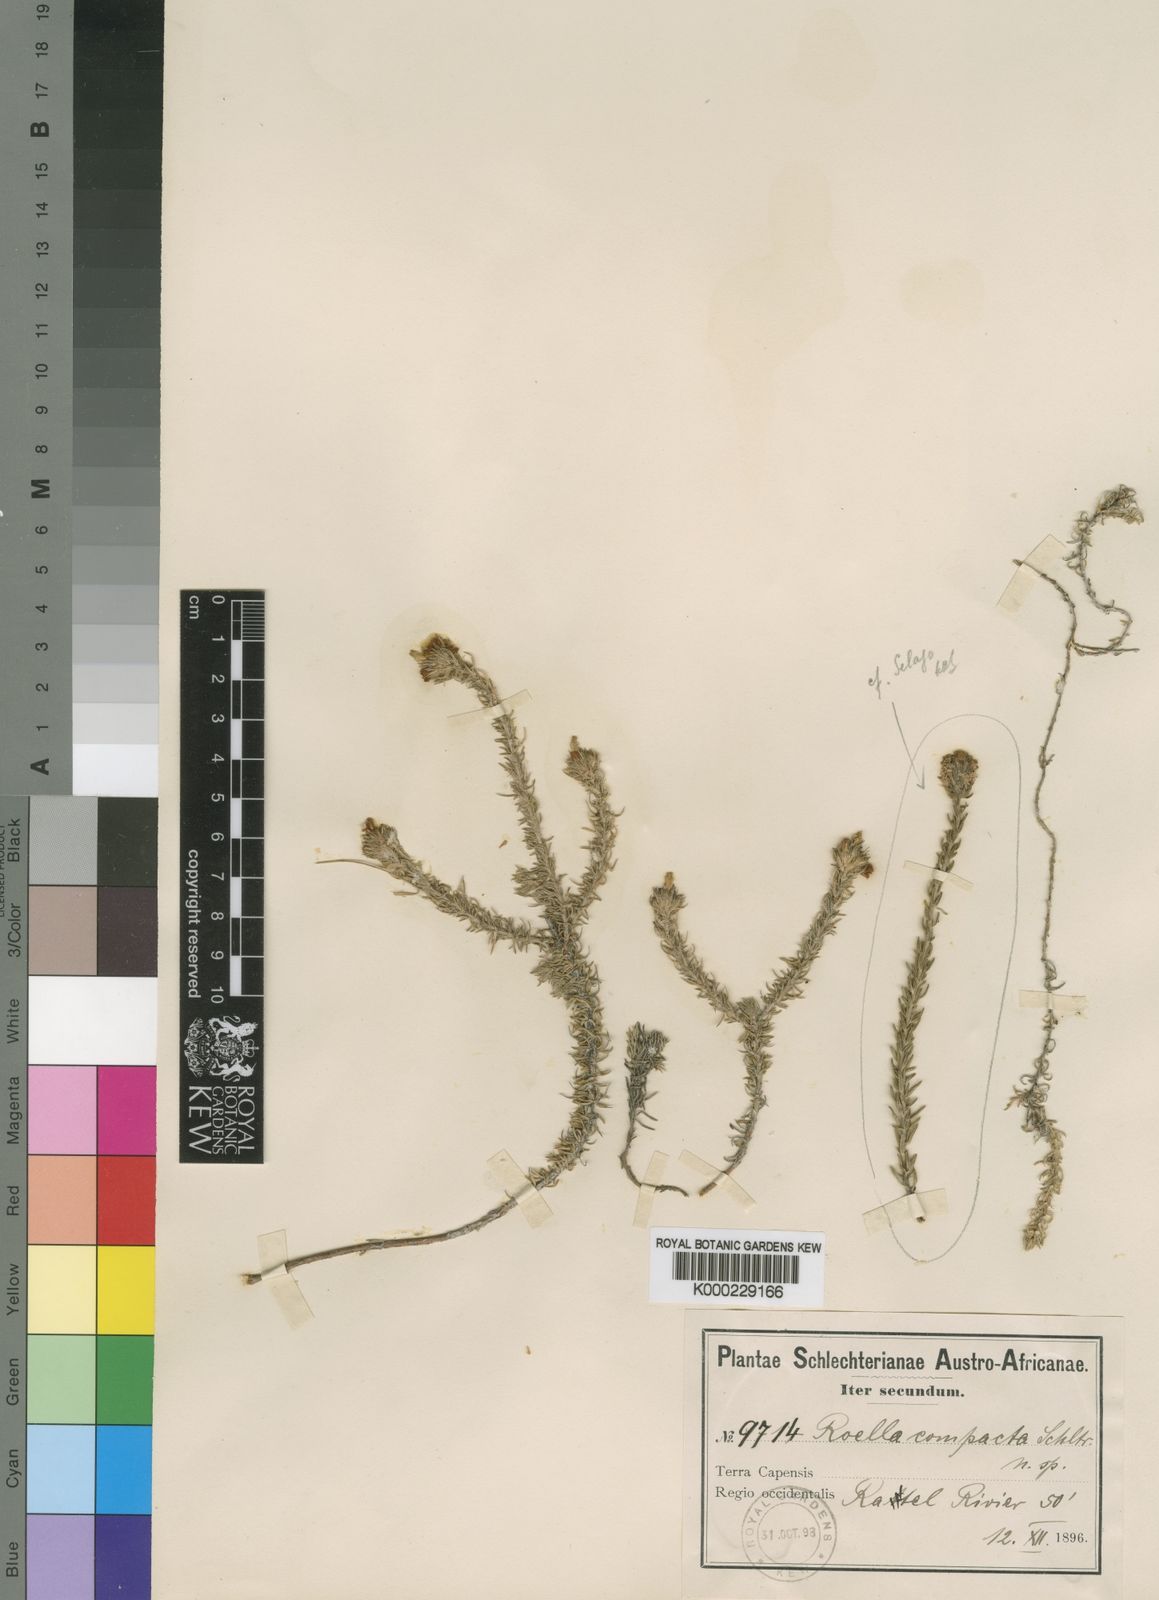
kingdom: Plantae
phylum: Tracheophyta
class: Magnoliopsida
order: Asterales
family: Campanulaceae
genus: Roella
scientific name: Roella compacta
